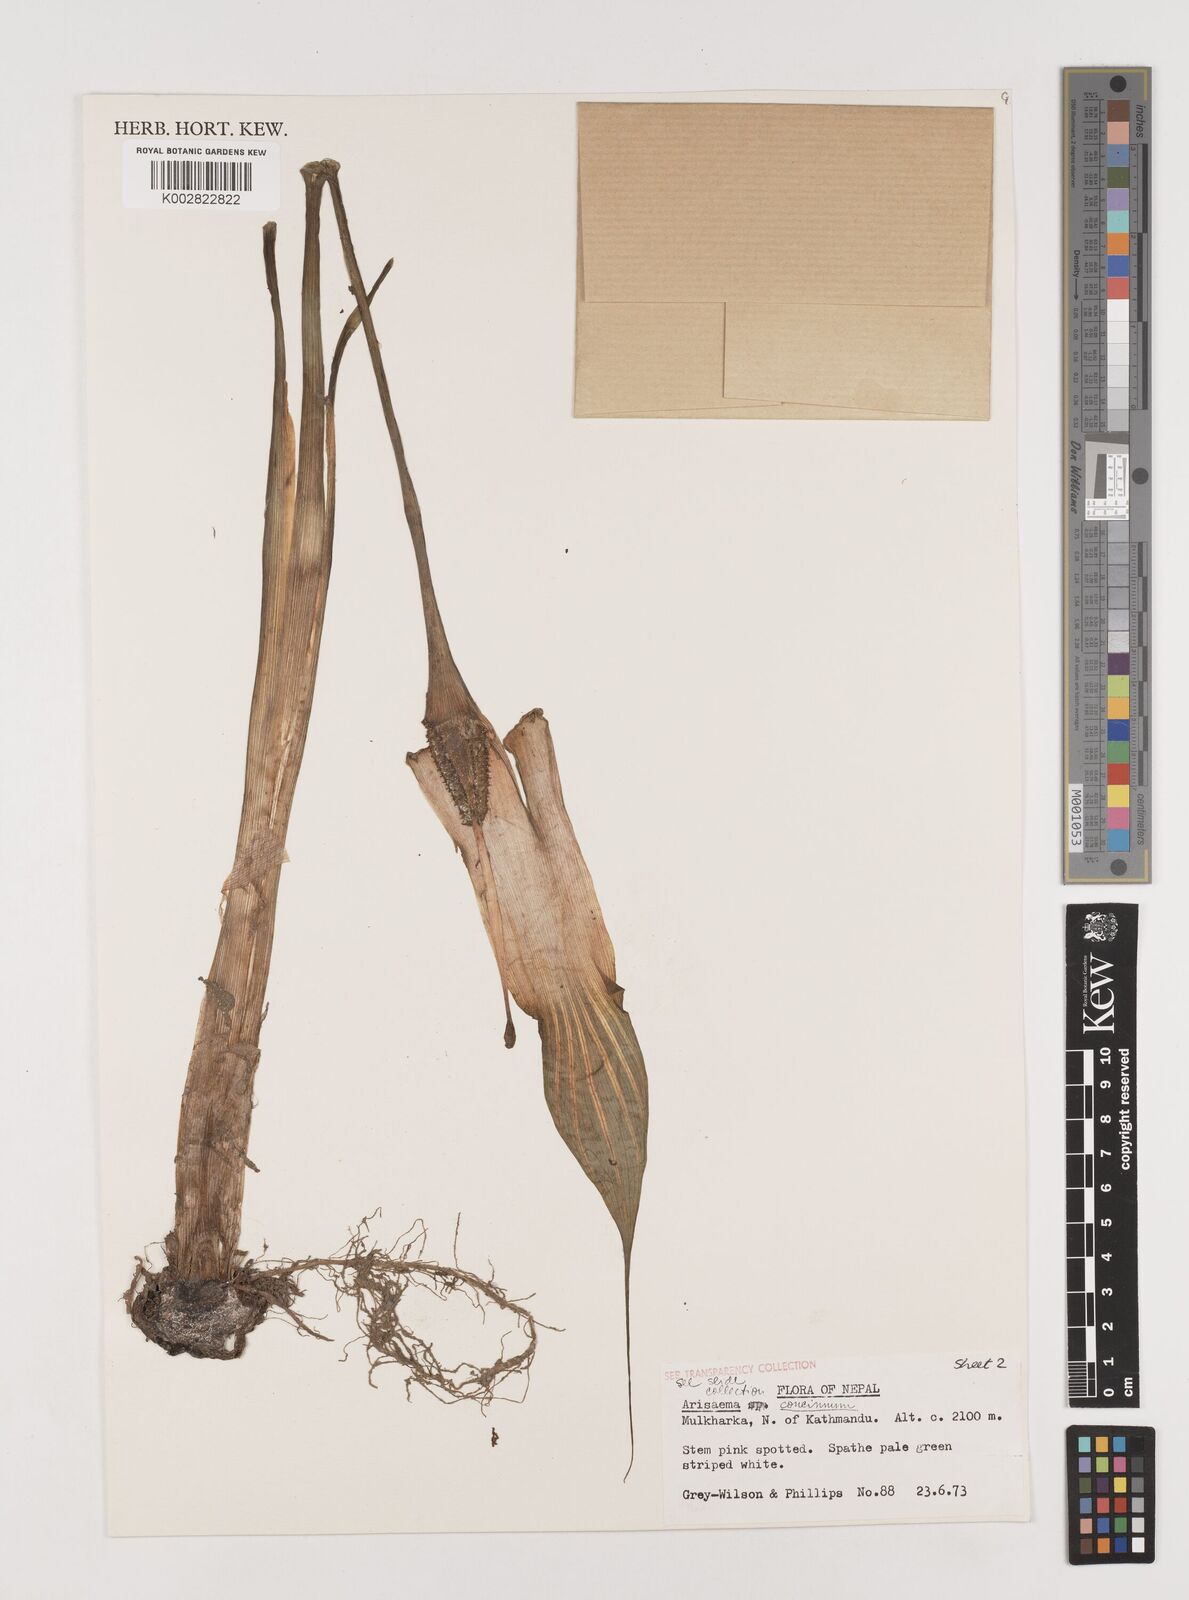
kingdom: Plantae
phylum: Tracheophyta
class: Liliopsida
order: Alismatales
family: Araceae
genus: Arisaema
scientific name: Arisaema concinnum
